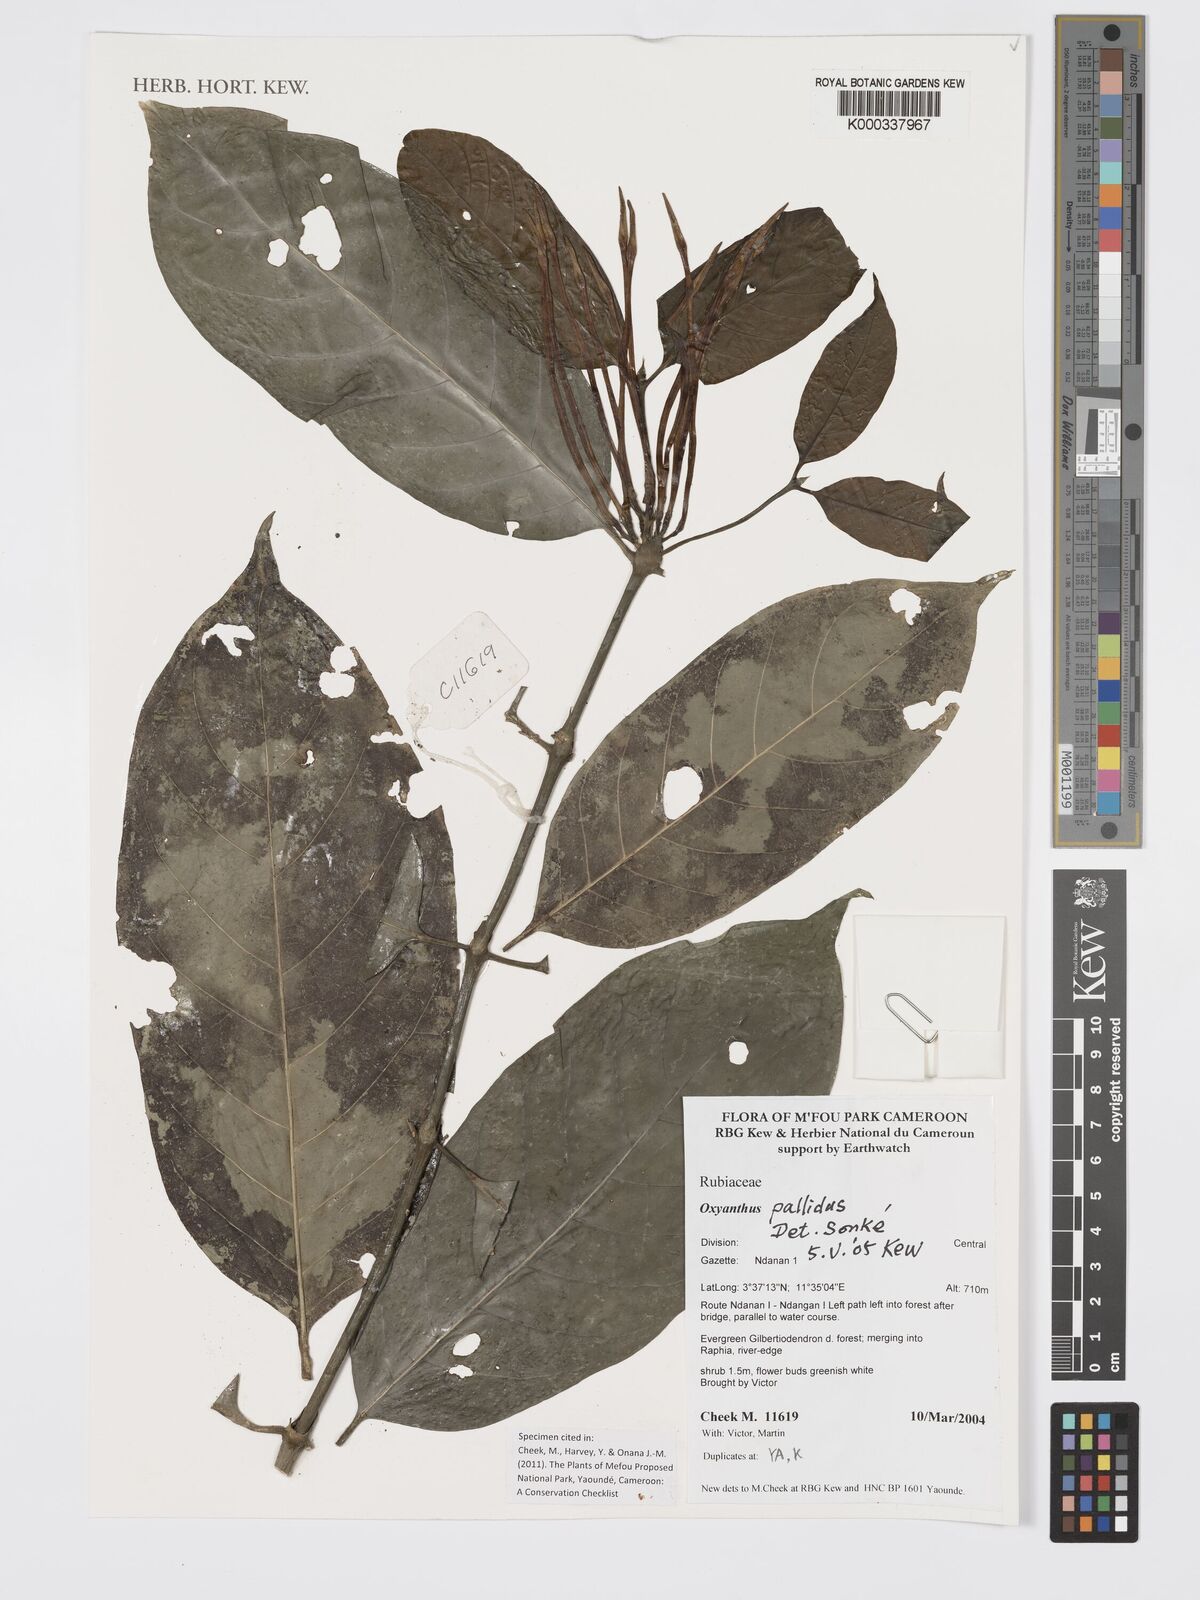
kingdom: Plantae
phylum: Tracheophyta
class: Magnoliopsida
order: Gentianales
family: Rubiaceae
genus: Oxyanthus
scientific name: Oxyanthus pallidus
